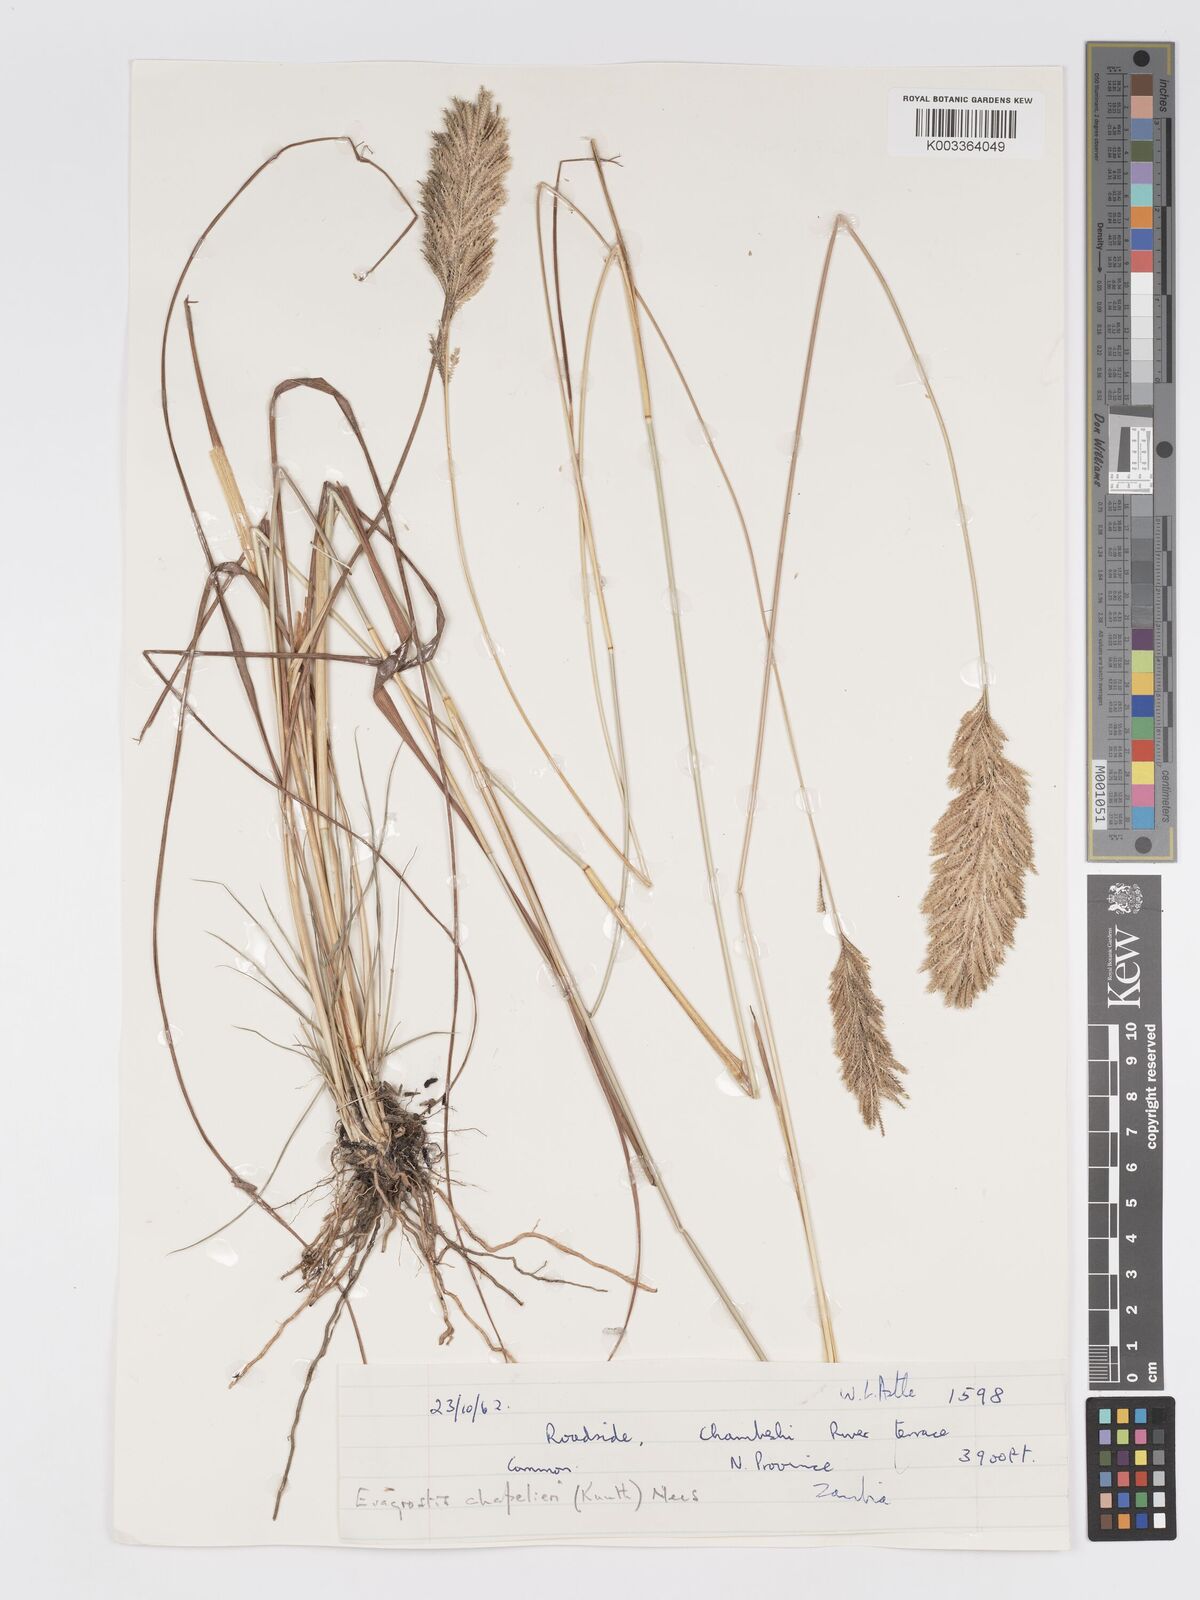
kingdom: Plantae
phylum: Tracheophyta
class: Liliopsida
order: Poales
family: Poaceae
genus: Eragrostis
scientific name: Eragrostis chapelieri
